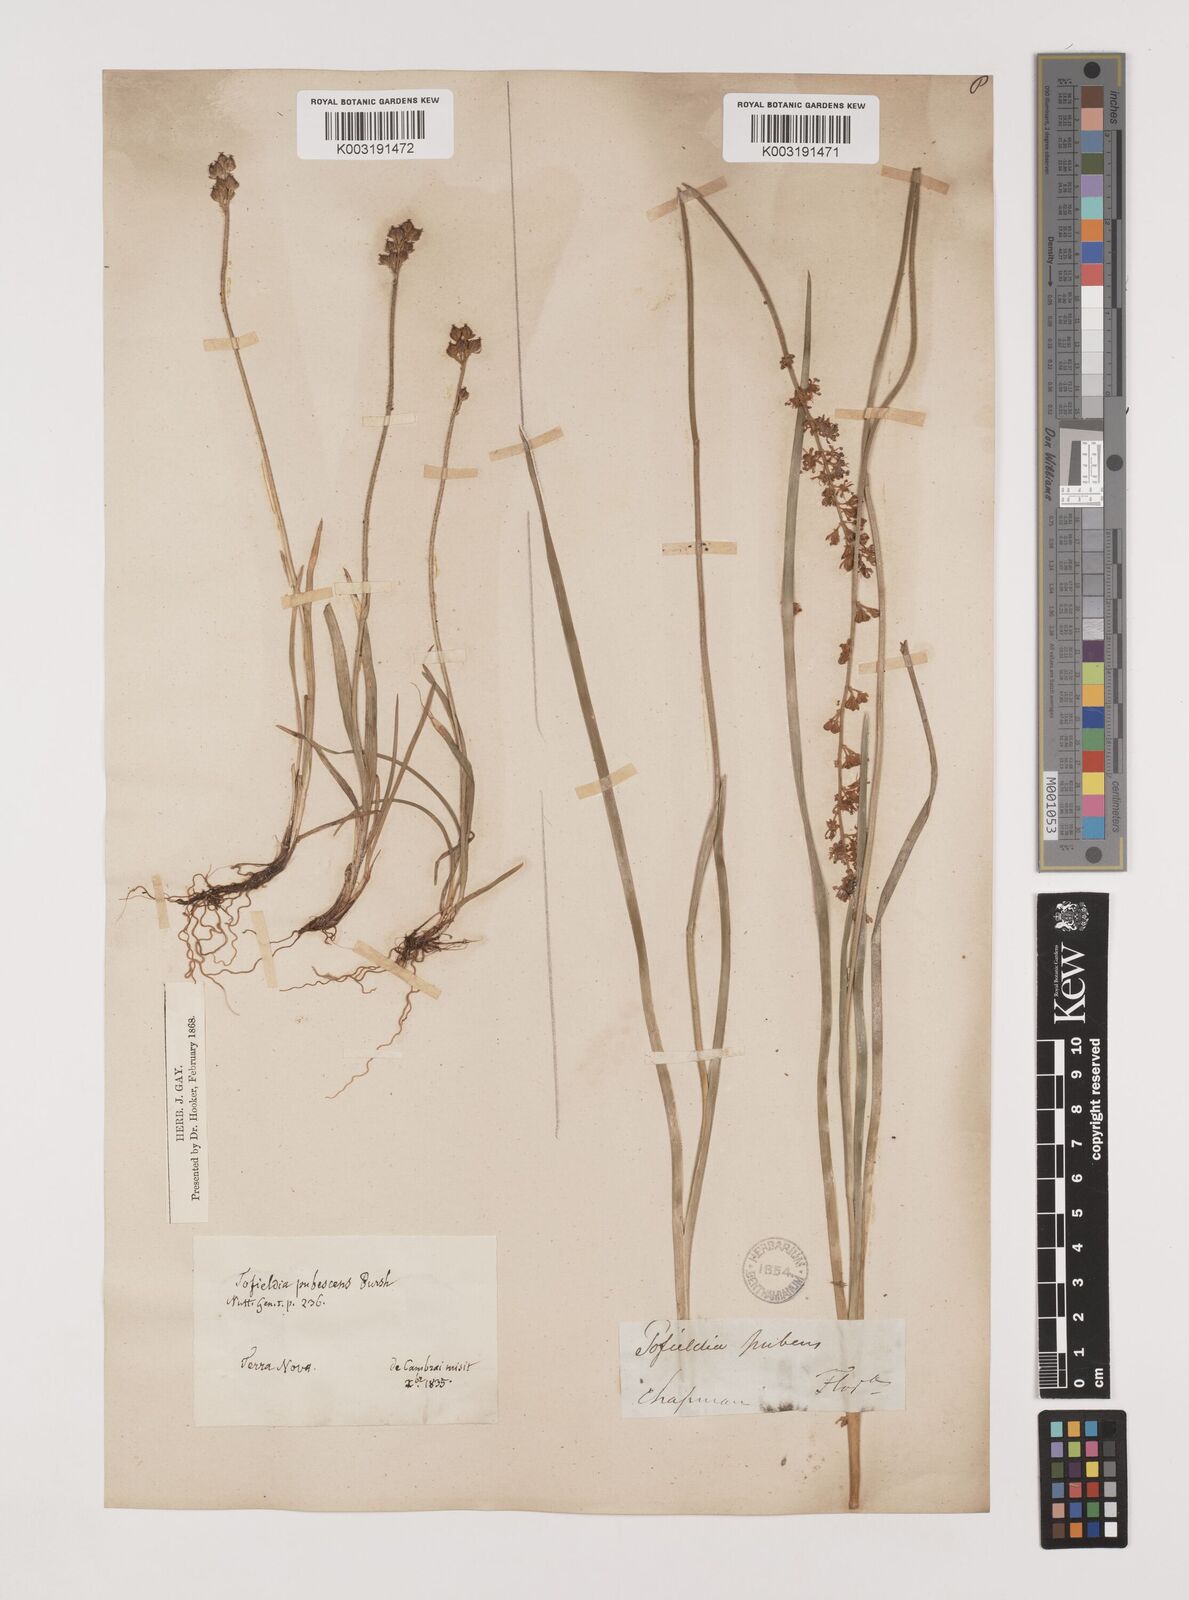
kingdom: Plantae
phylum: Tracheophyta
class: Liliopsida
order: Alismatales
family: Tofieldiaceae
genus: Triantha
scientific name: Triantha racemosa
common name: Coastal false asphodel
